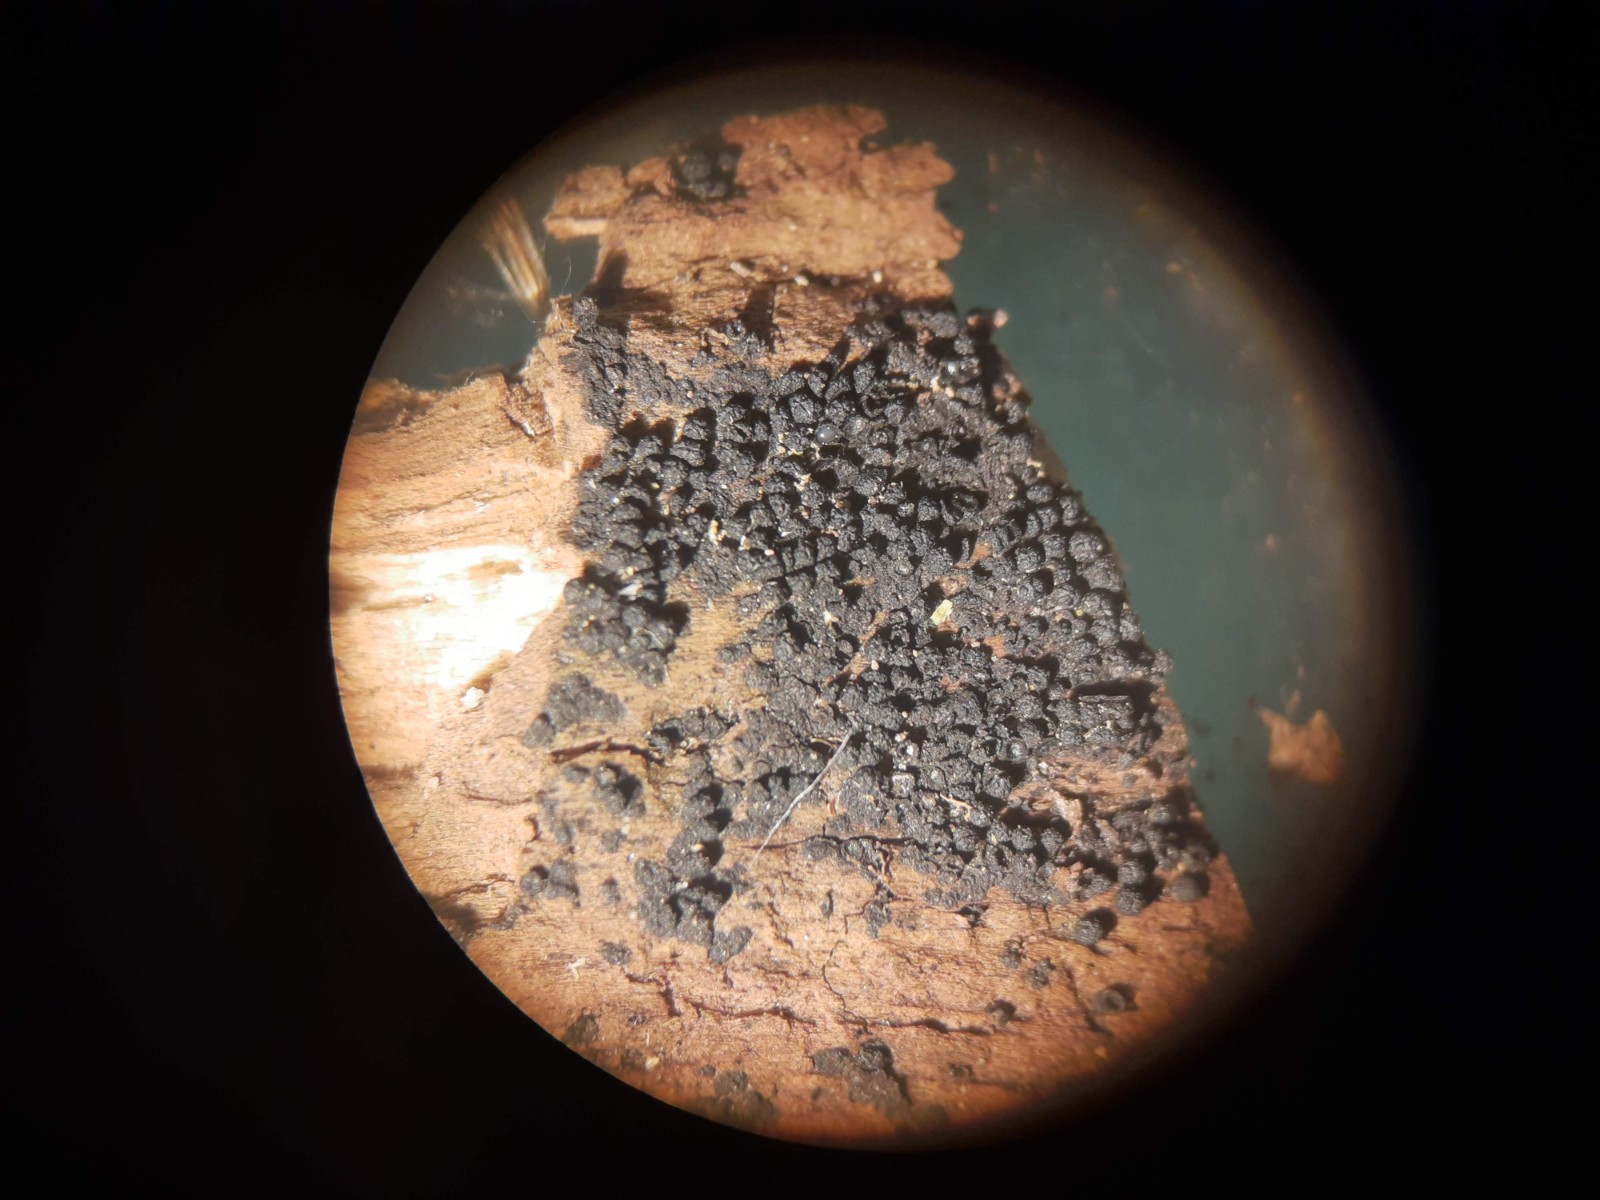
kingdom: Fungi
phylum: Ascomycota
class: Sordariomycetes
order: Coronophorales
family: Bertiaceae
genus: Bertia
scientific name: Bertia moriformis
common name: almindelig morbærkerne
